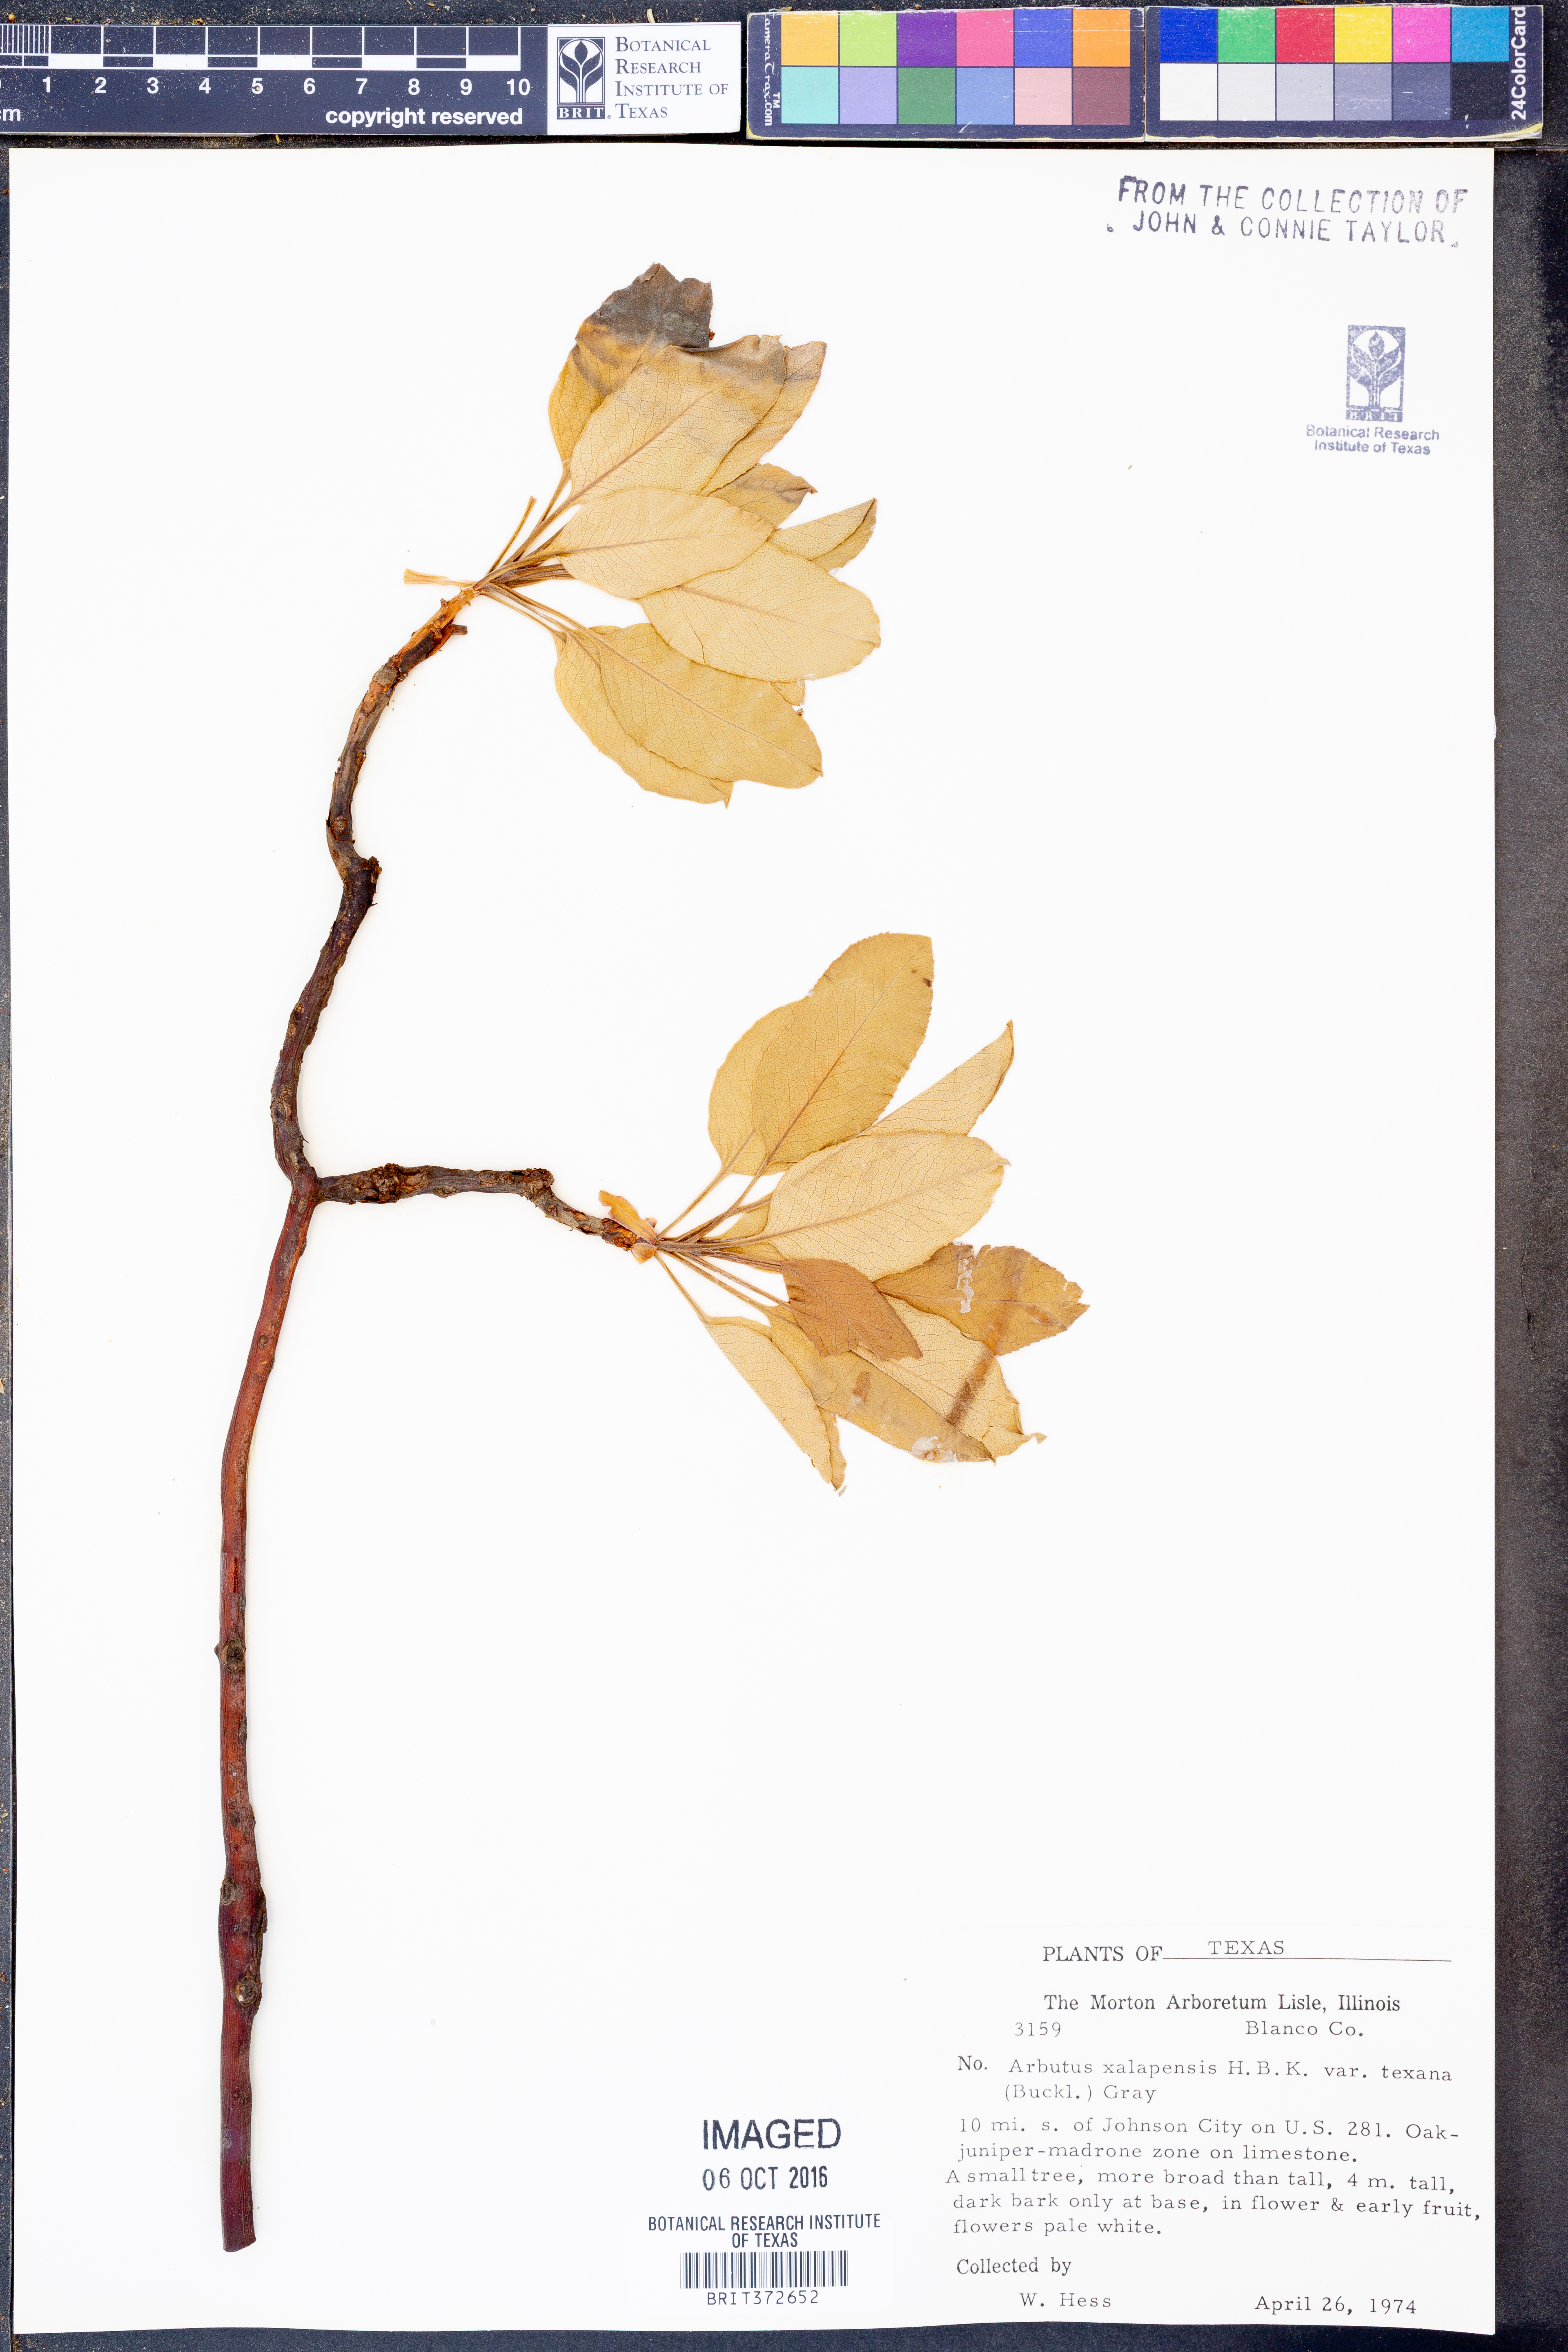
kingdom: Plantae
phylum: Tracheophyta
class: Magnoliopsida
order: Ericales
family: Ericaceae
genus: Arbutus
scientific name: Arbutus xalapensis
